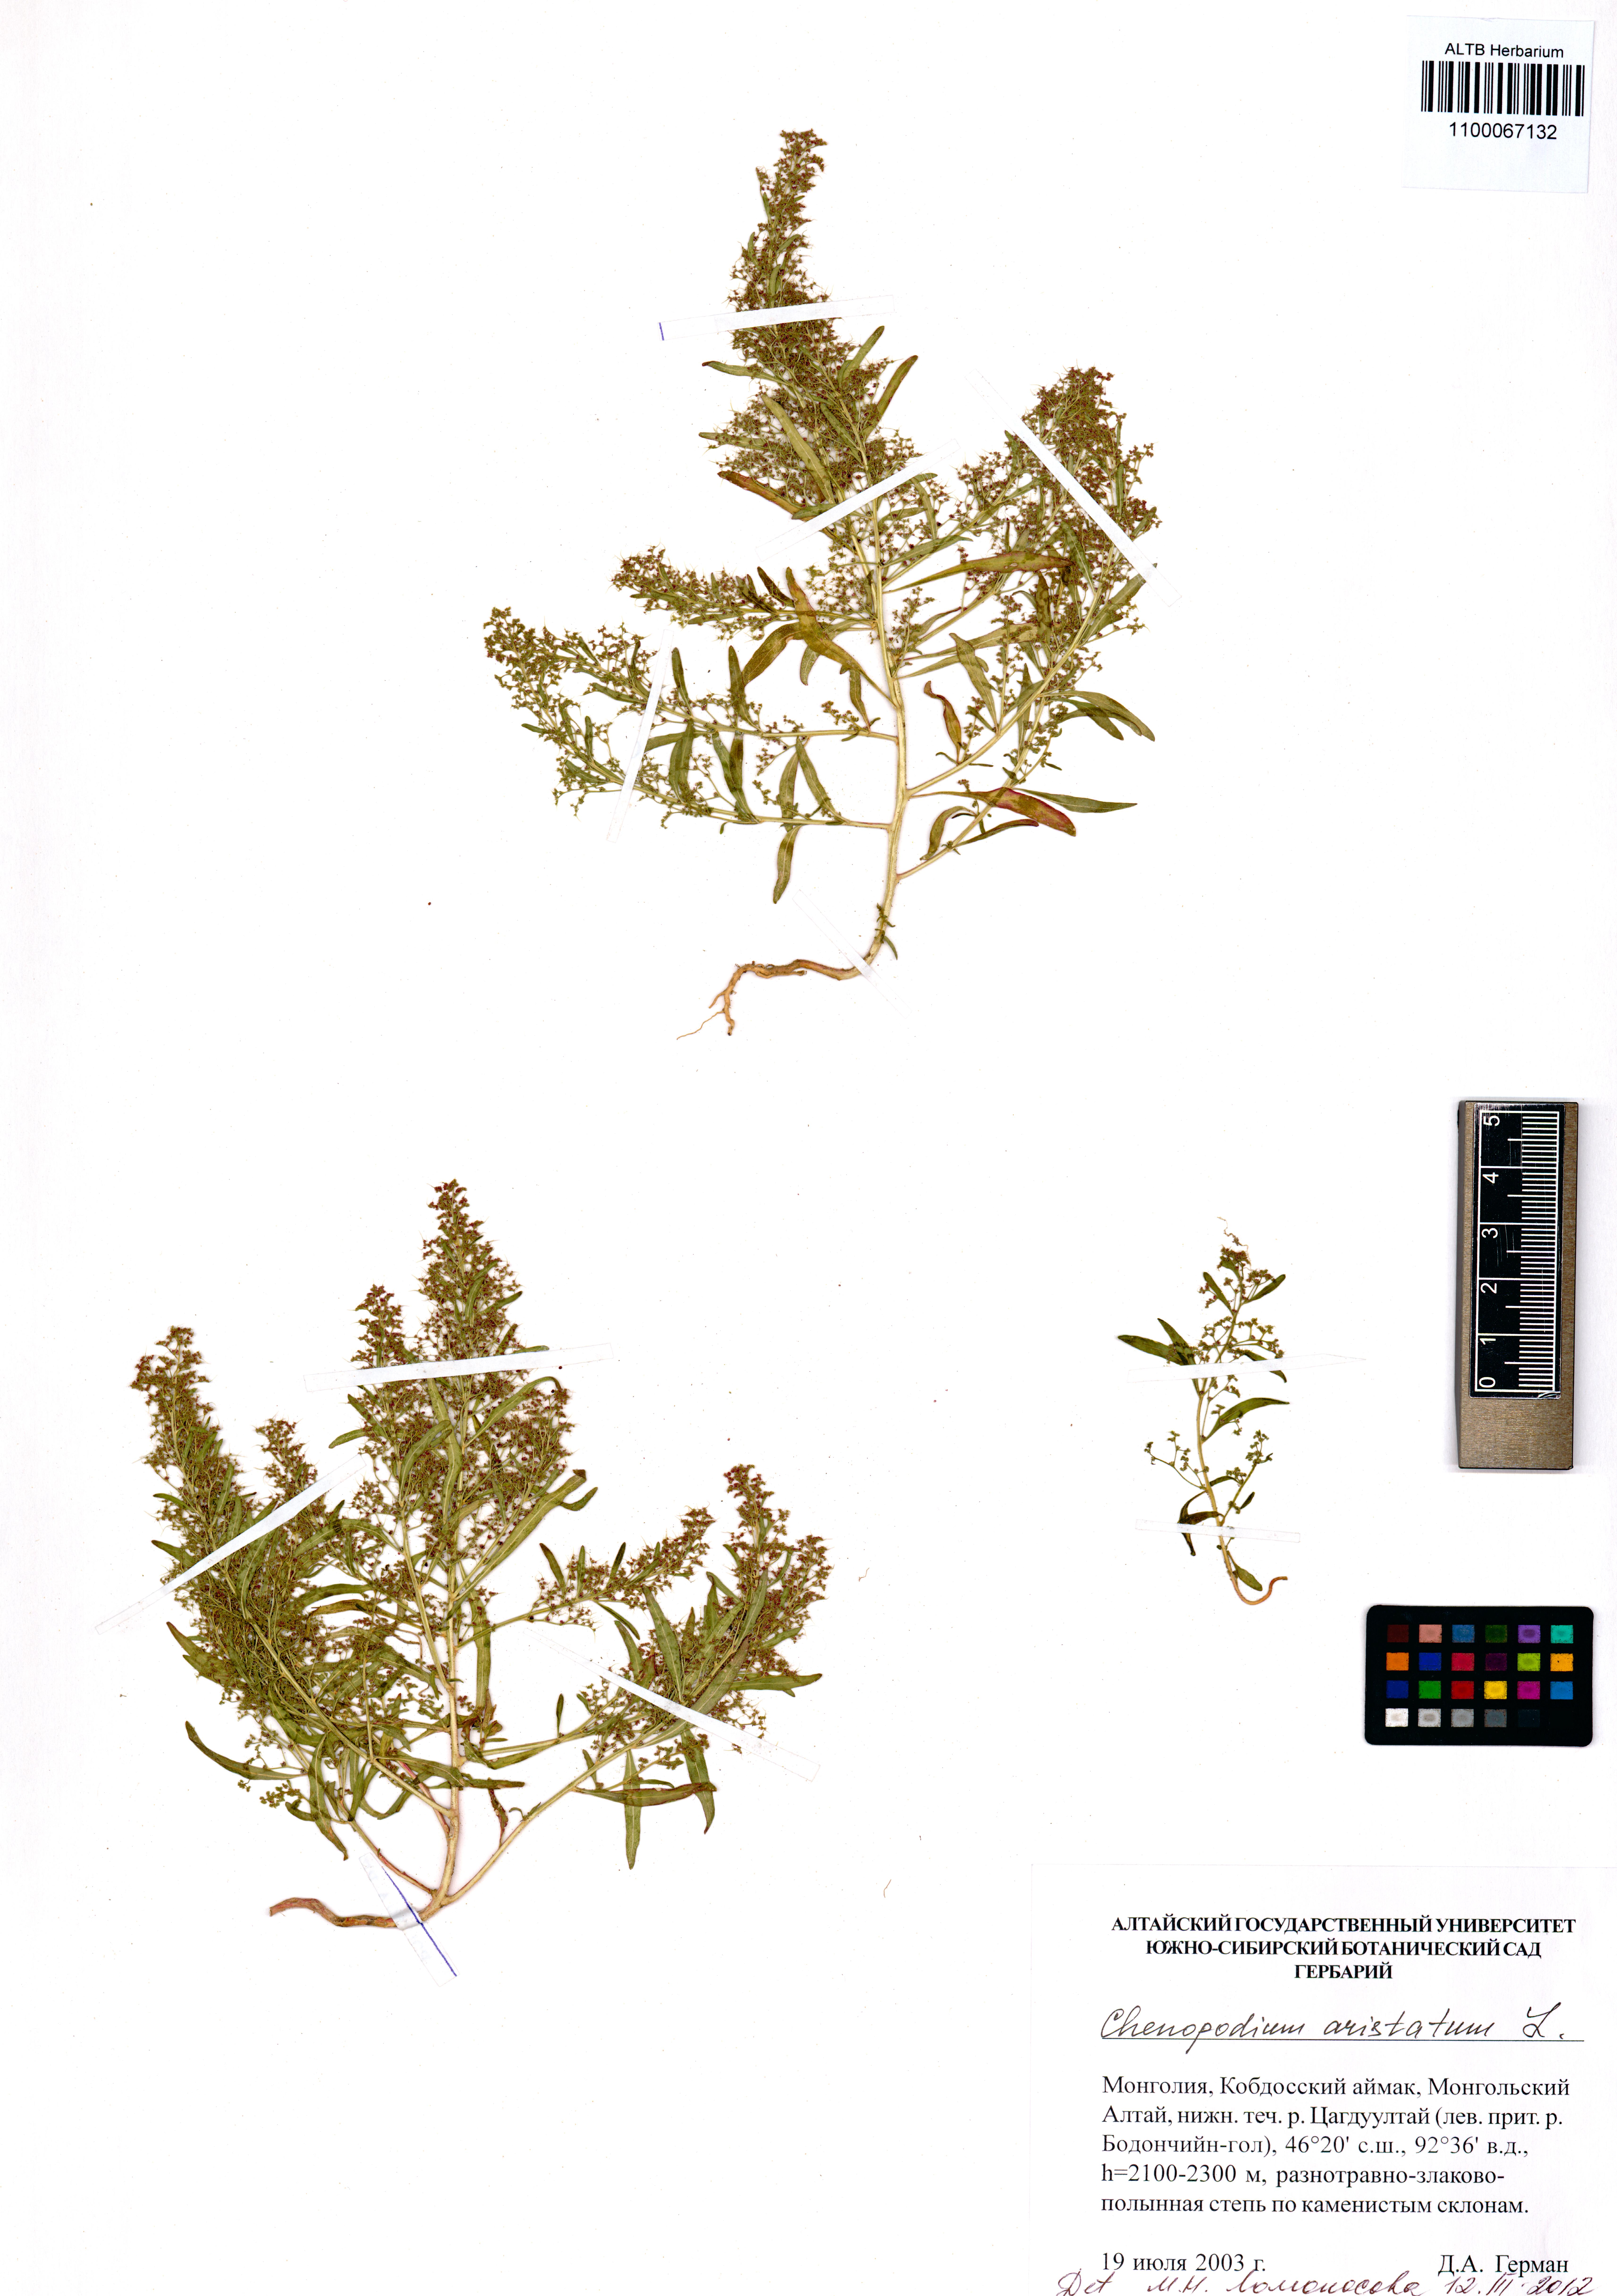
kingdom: Plantae
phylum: Tracheophyta
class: Magnoliopsida
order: Caryophyllales
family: Amaranthaceae
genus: Teloxys
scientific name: Teloxys aristata
